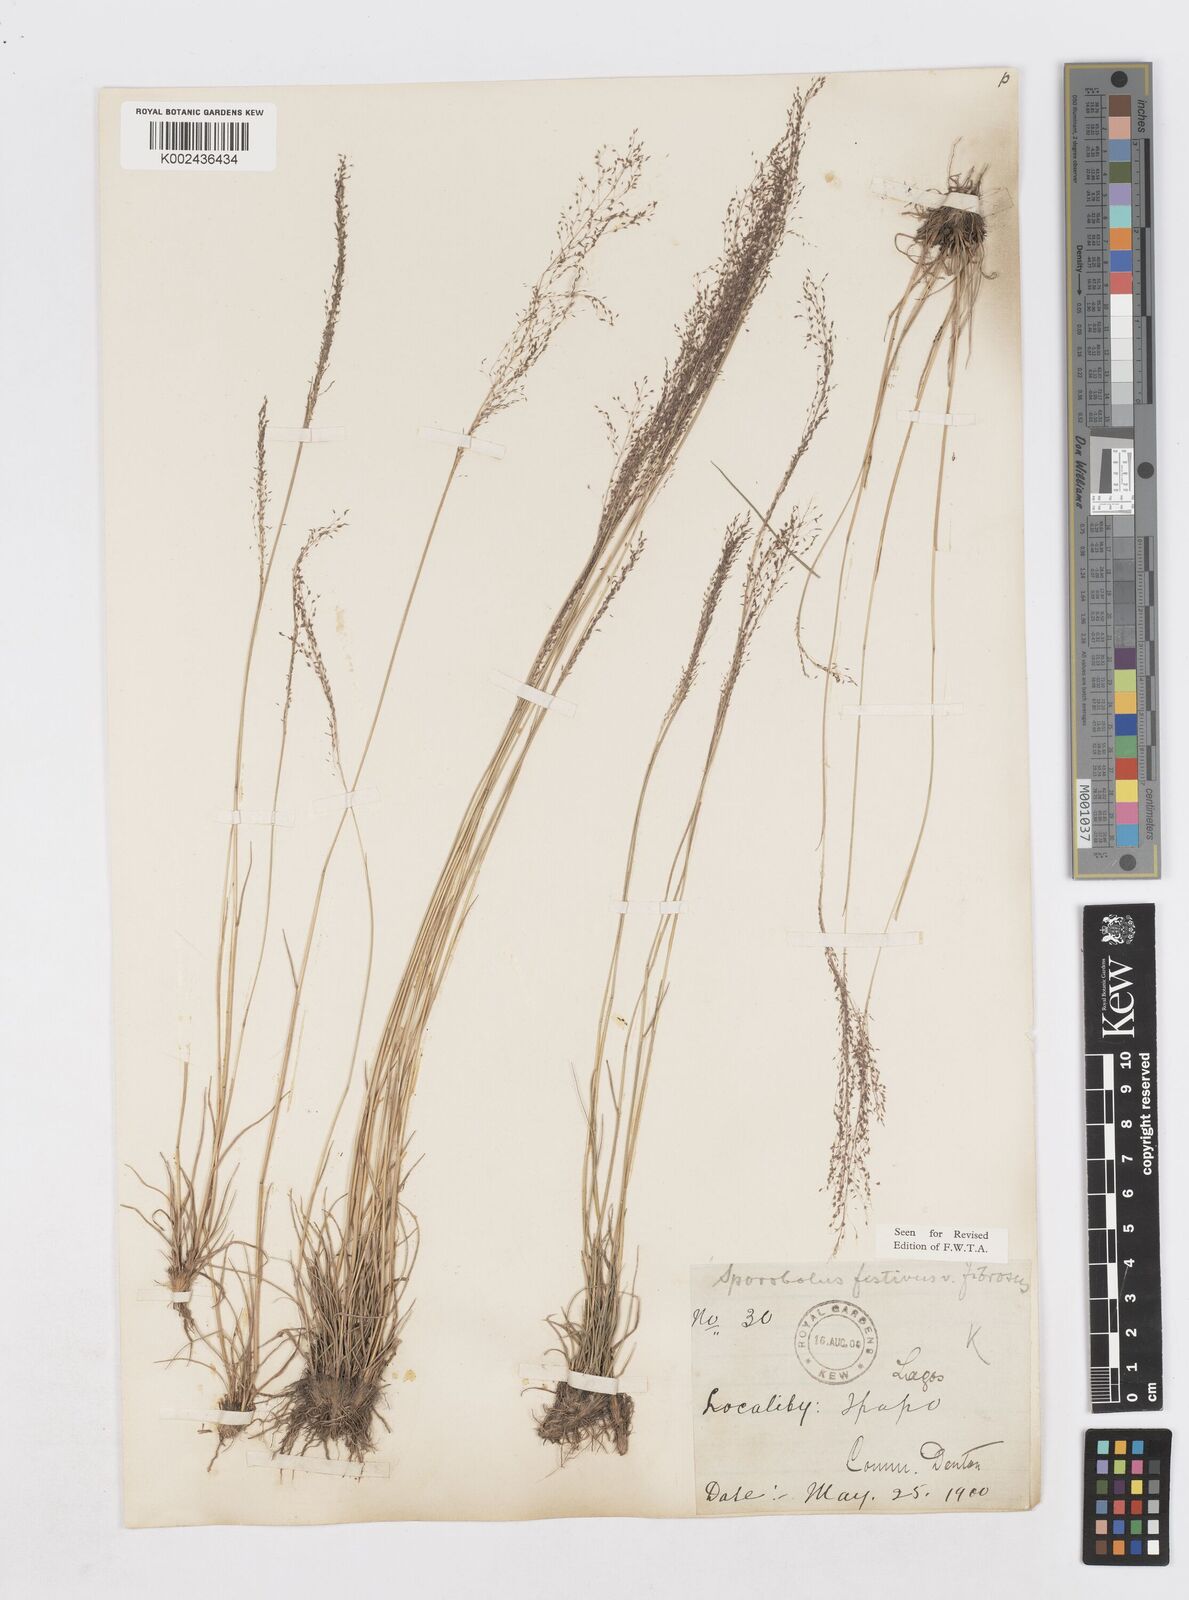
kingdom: Plantae
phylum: Tracheophyta
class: Liliopsida
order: Poales
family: Poaceae
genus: Sporobolus
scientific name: Sporobolus festivus
